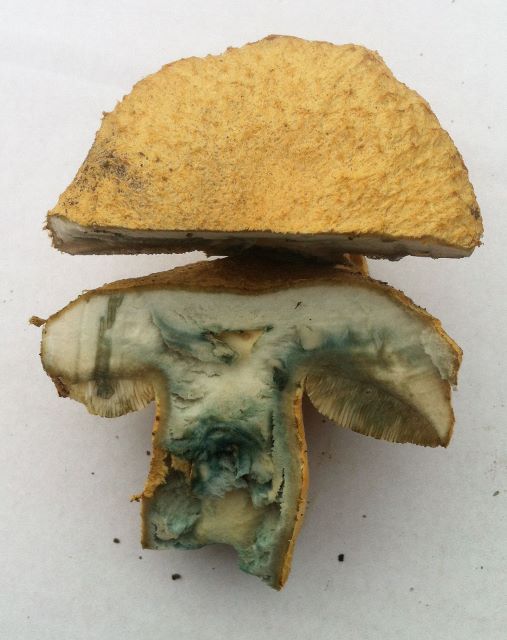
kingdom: Fungi
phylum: Basidiomycota
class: Agaricomycetes
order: Boletales
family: Gyroporaceae
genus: Gyroporus
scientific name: Gyroporus cyanescens
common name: blånende kammerrørhat
